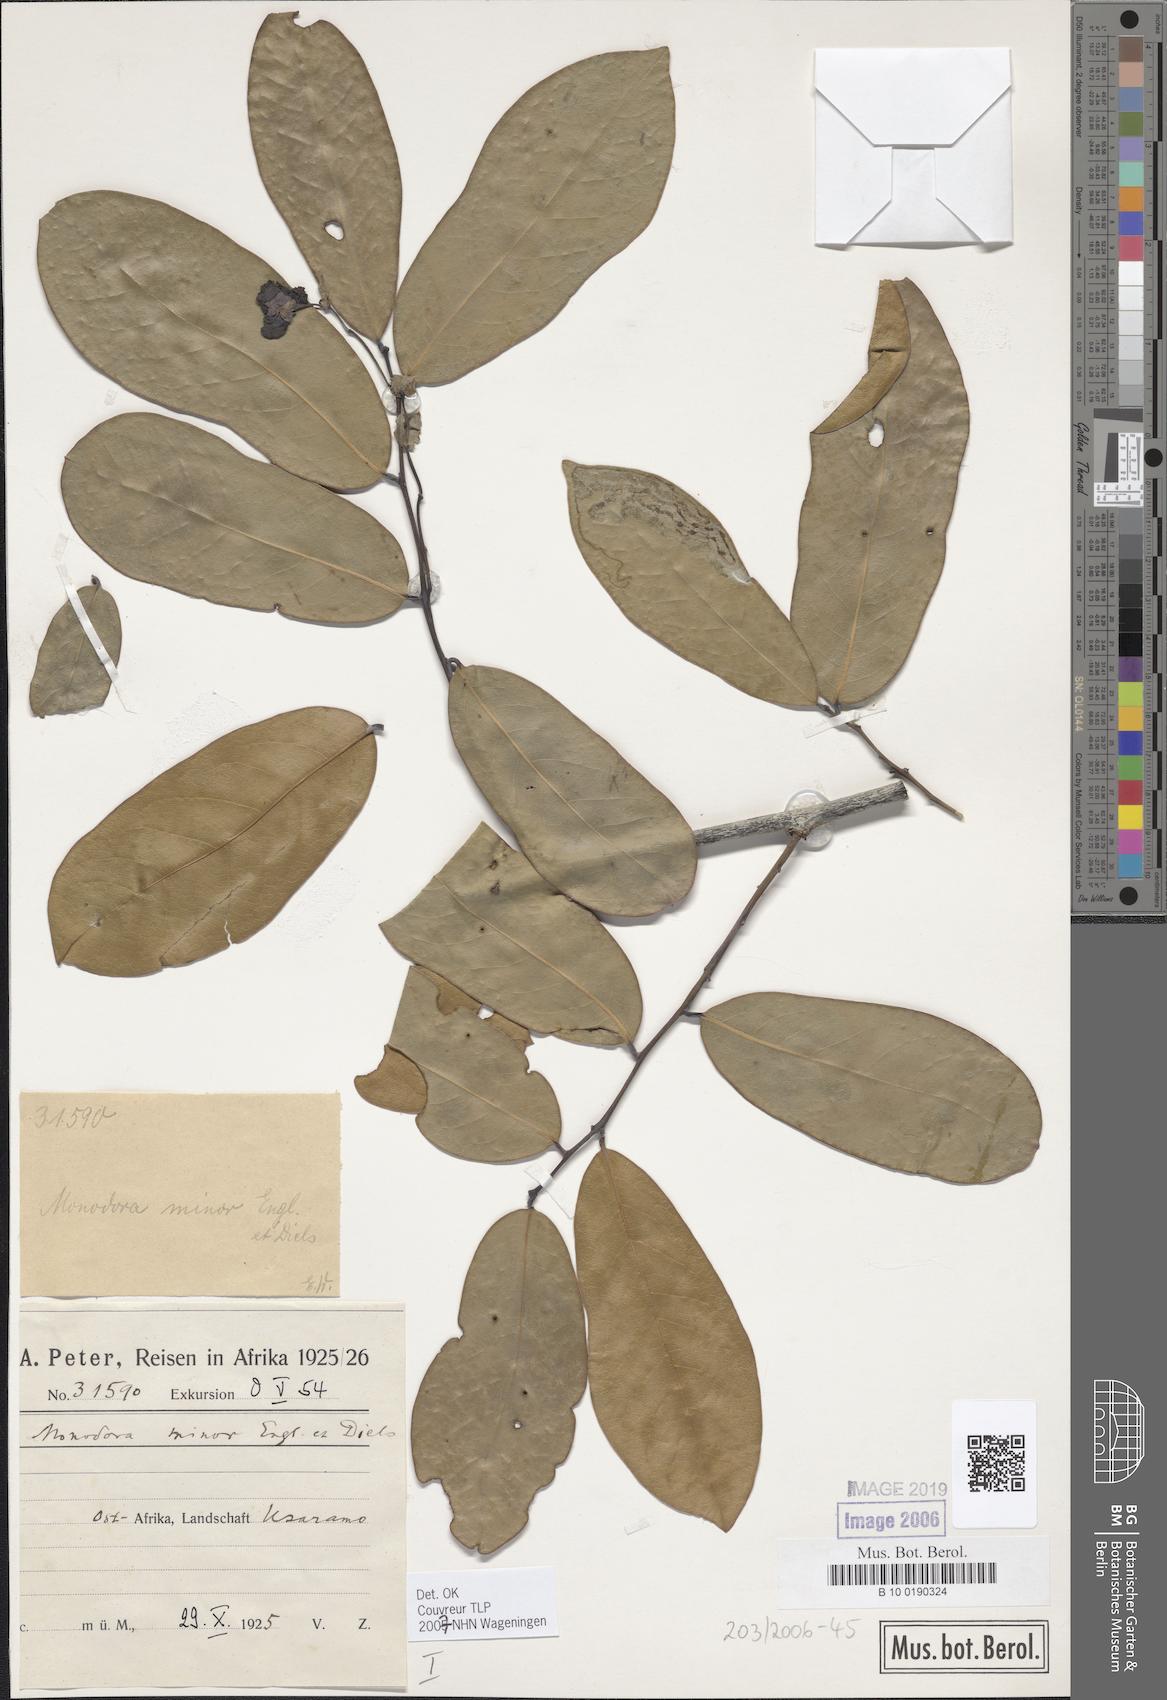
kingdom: Plantae
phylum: Tracheophyta
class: Magnoliopsida
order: Magnoliales
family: Annonaceae
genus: Monodora
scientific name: Monodora minor
